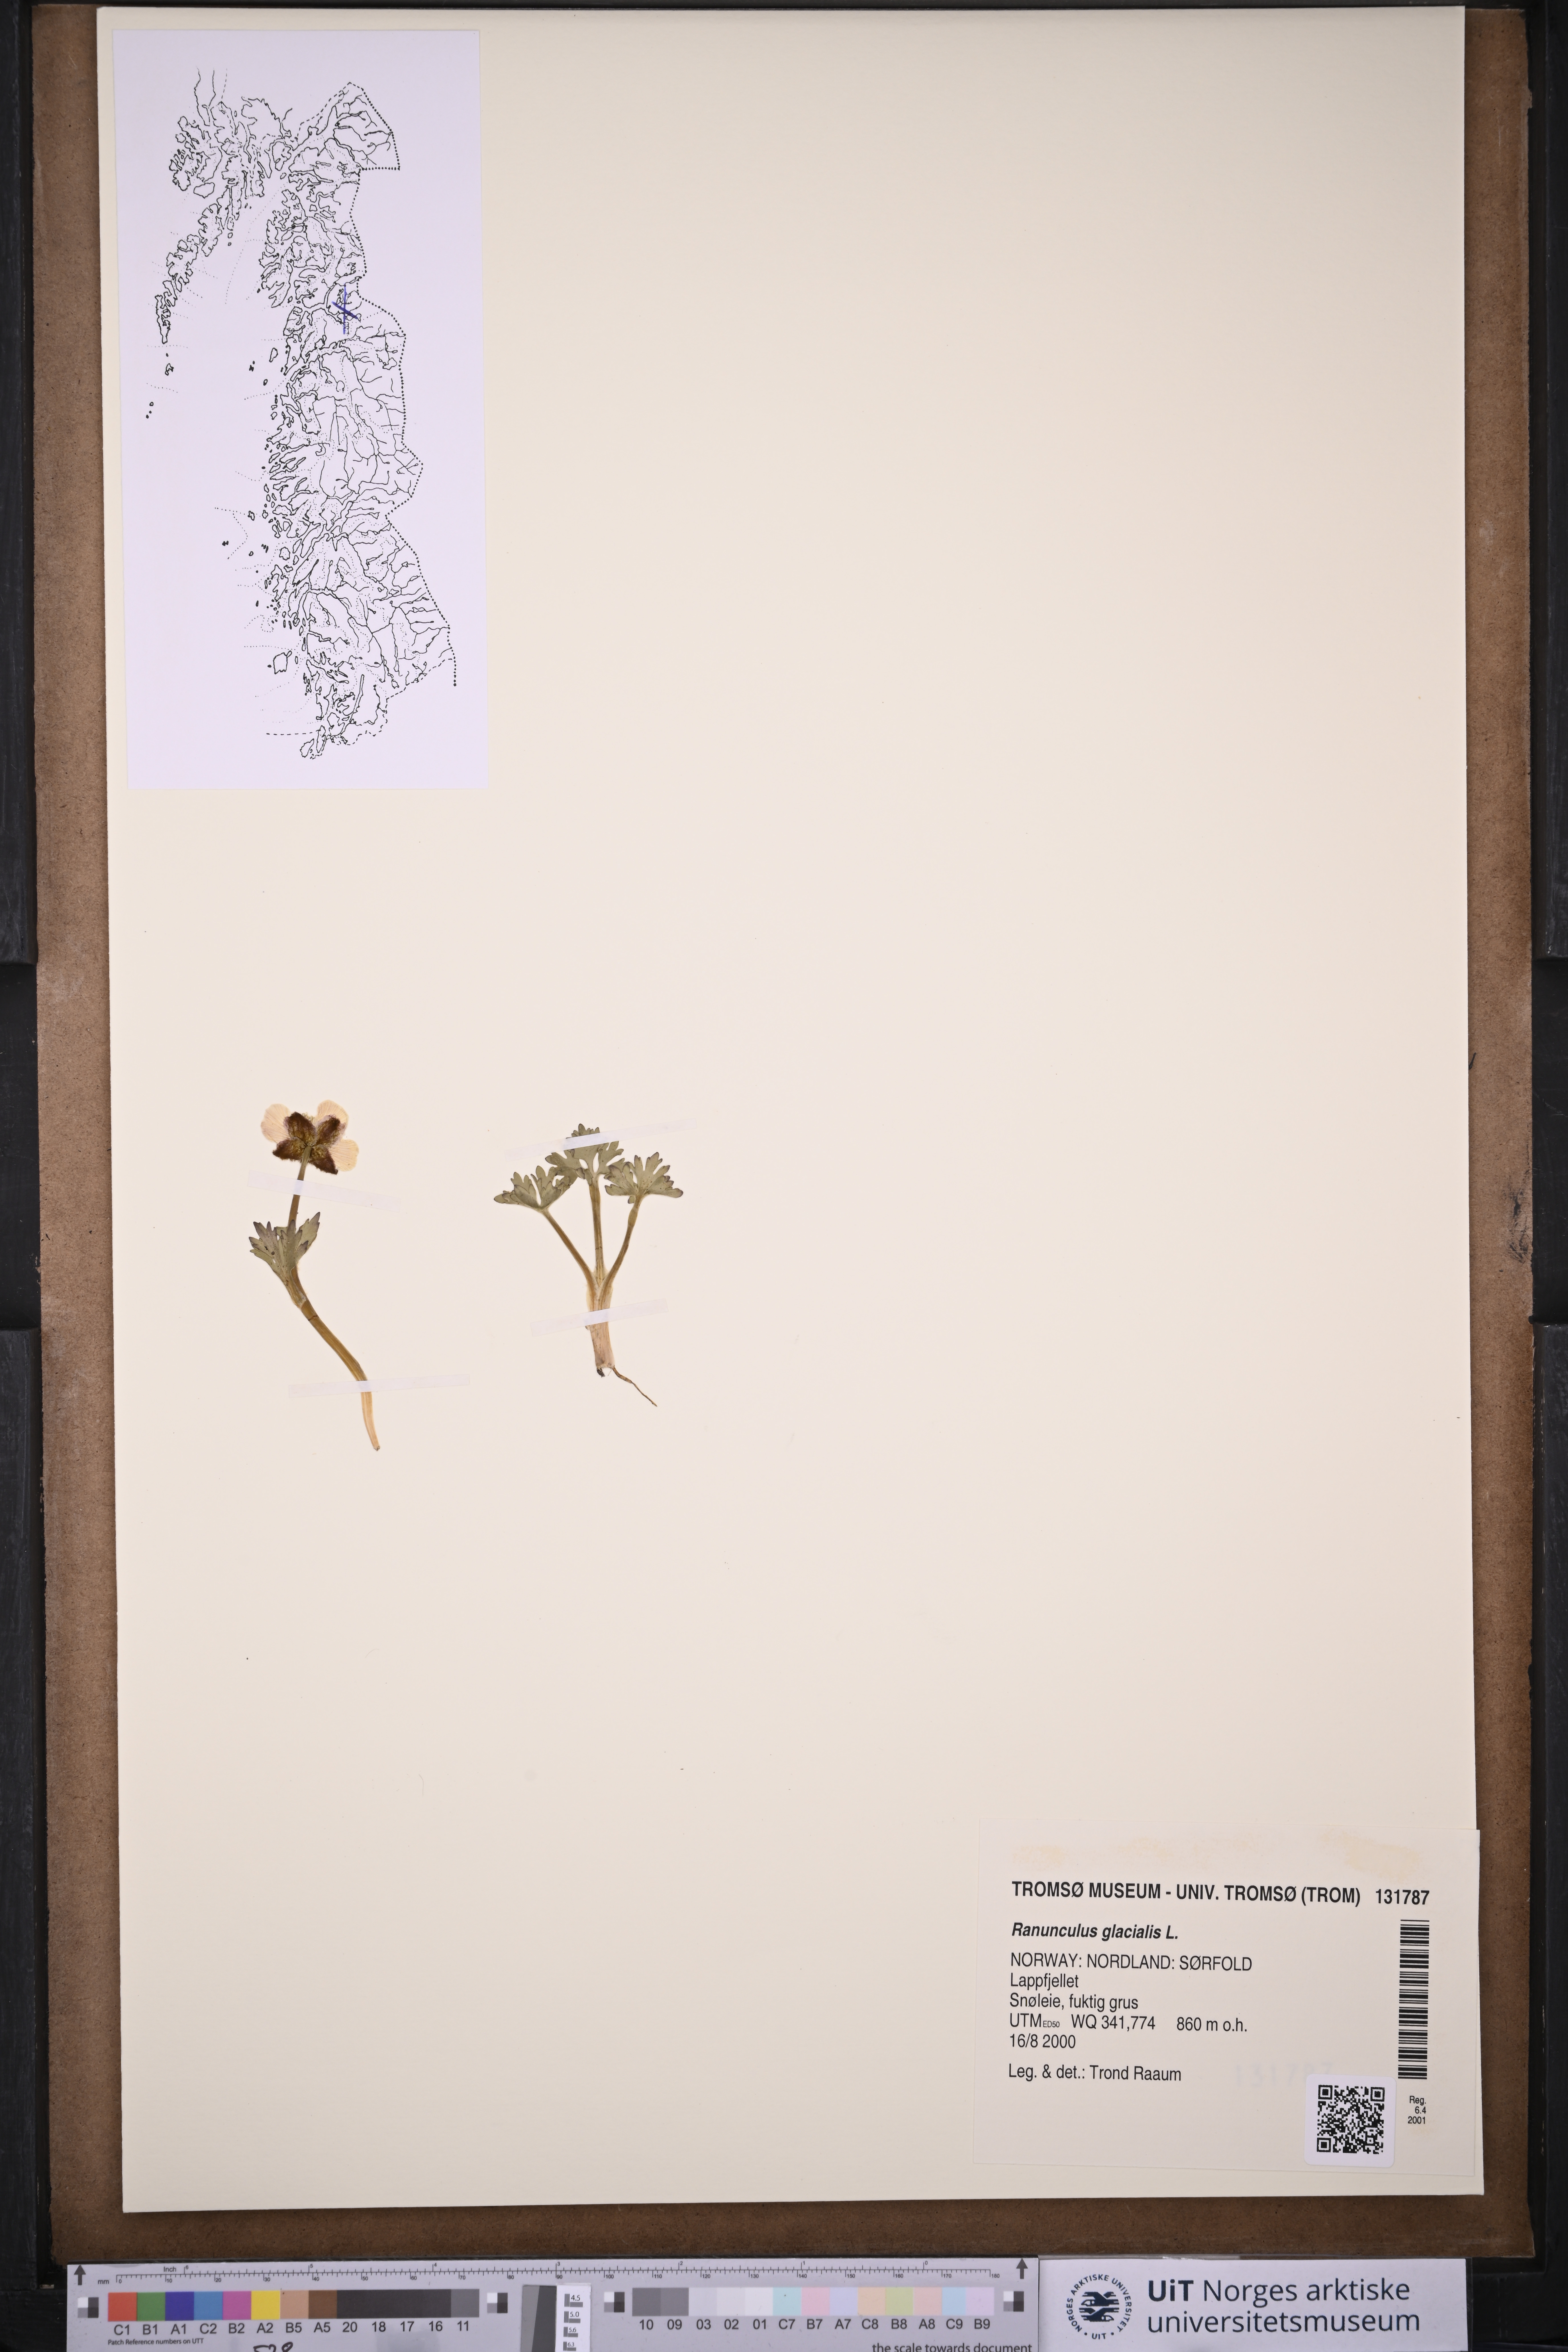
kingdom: Plantae
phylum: Tracheophyta
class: Magnoliopsida
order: Ranunculales
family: Ranunculaceae
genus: Ranunculus
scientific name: Ranunculus glacialis
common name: Glacier buttercup
